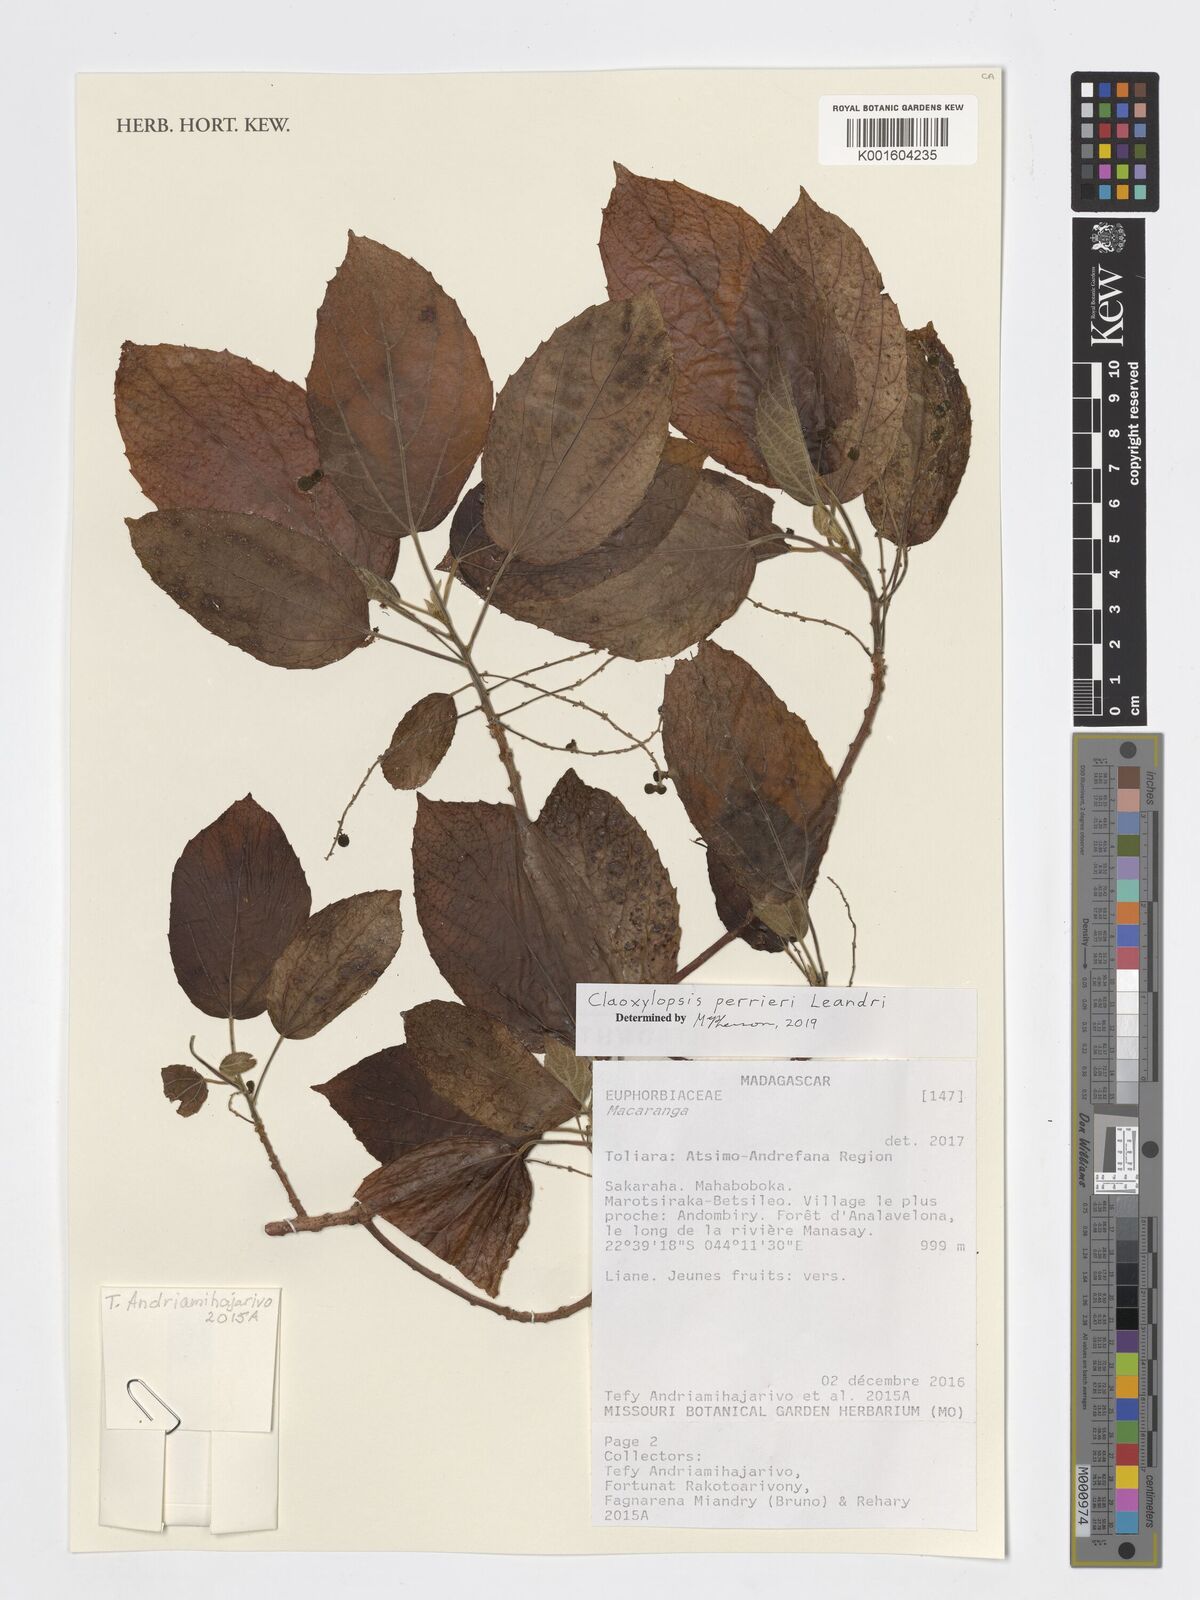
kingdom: Plantae
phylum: Tracheophyta
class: Magnoliopsida
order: Malpighiales
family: Euphorbiaceae
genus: Claoxylopsis
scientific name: Claoxylopsis perrieri
